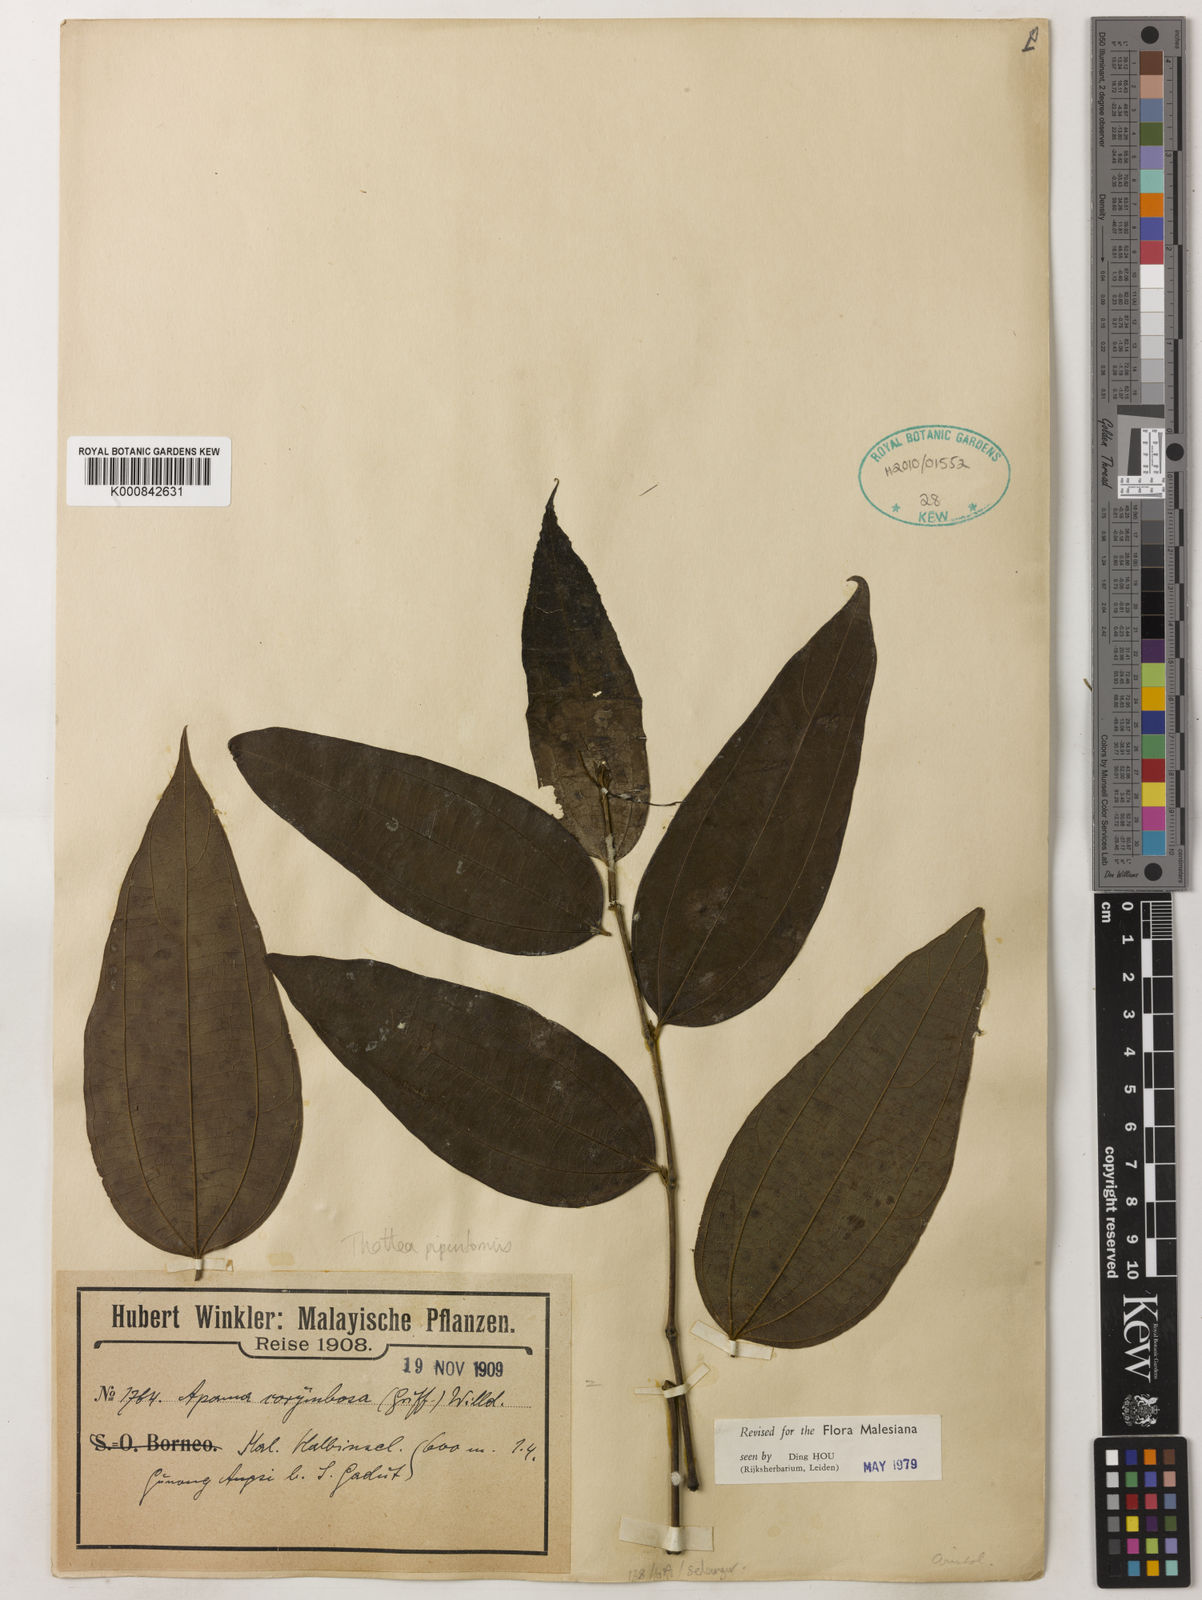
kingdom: Plantae
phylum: Tracheophyta
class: Magnoliopsida
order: Piperales
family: Aristolochiaceae
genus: Thottea
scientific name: Thottea piperiformis
